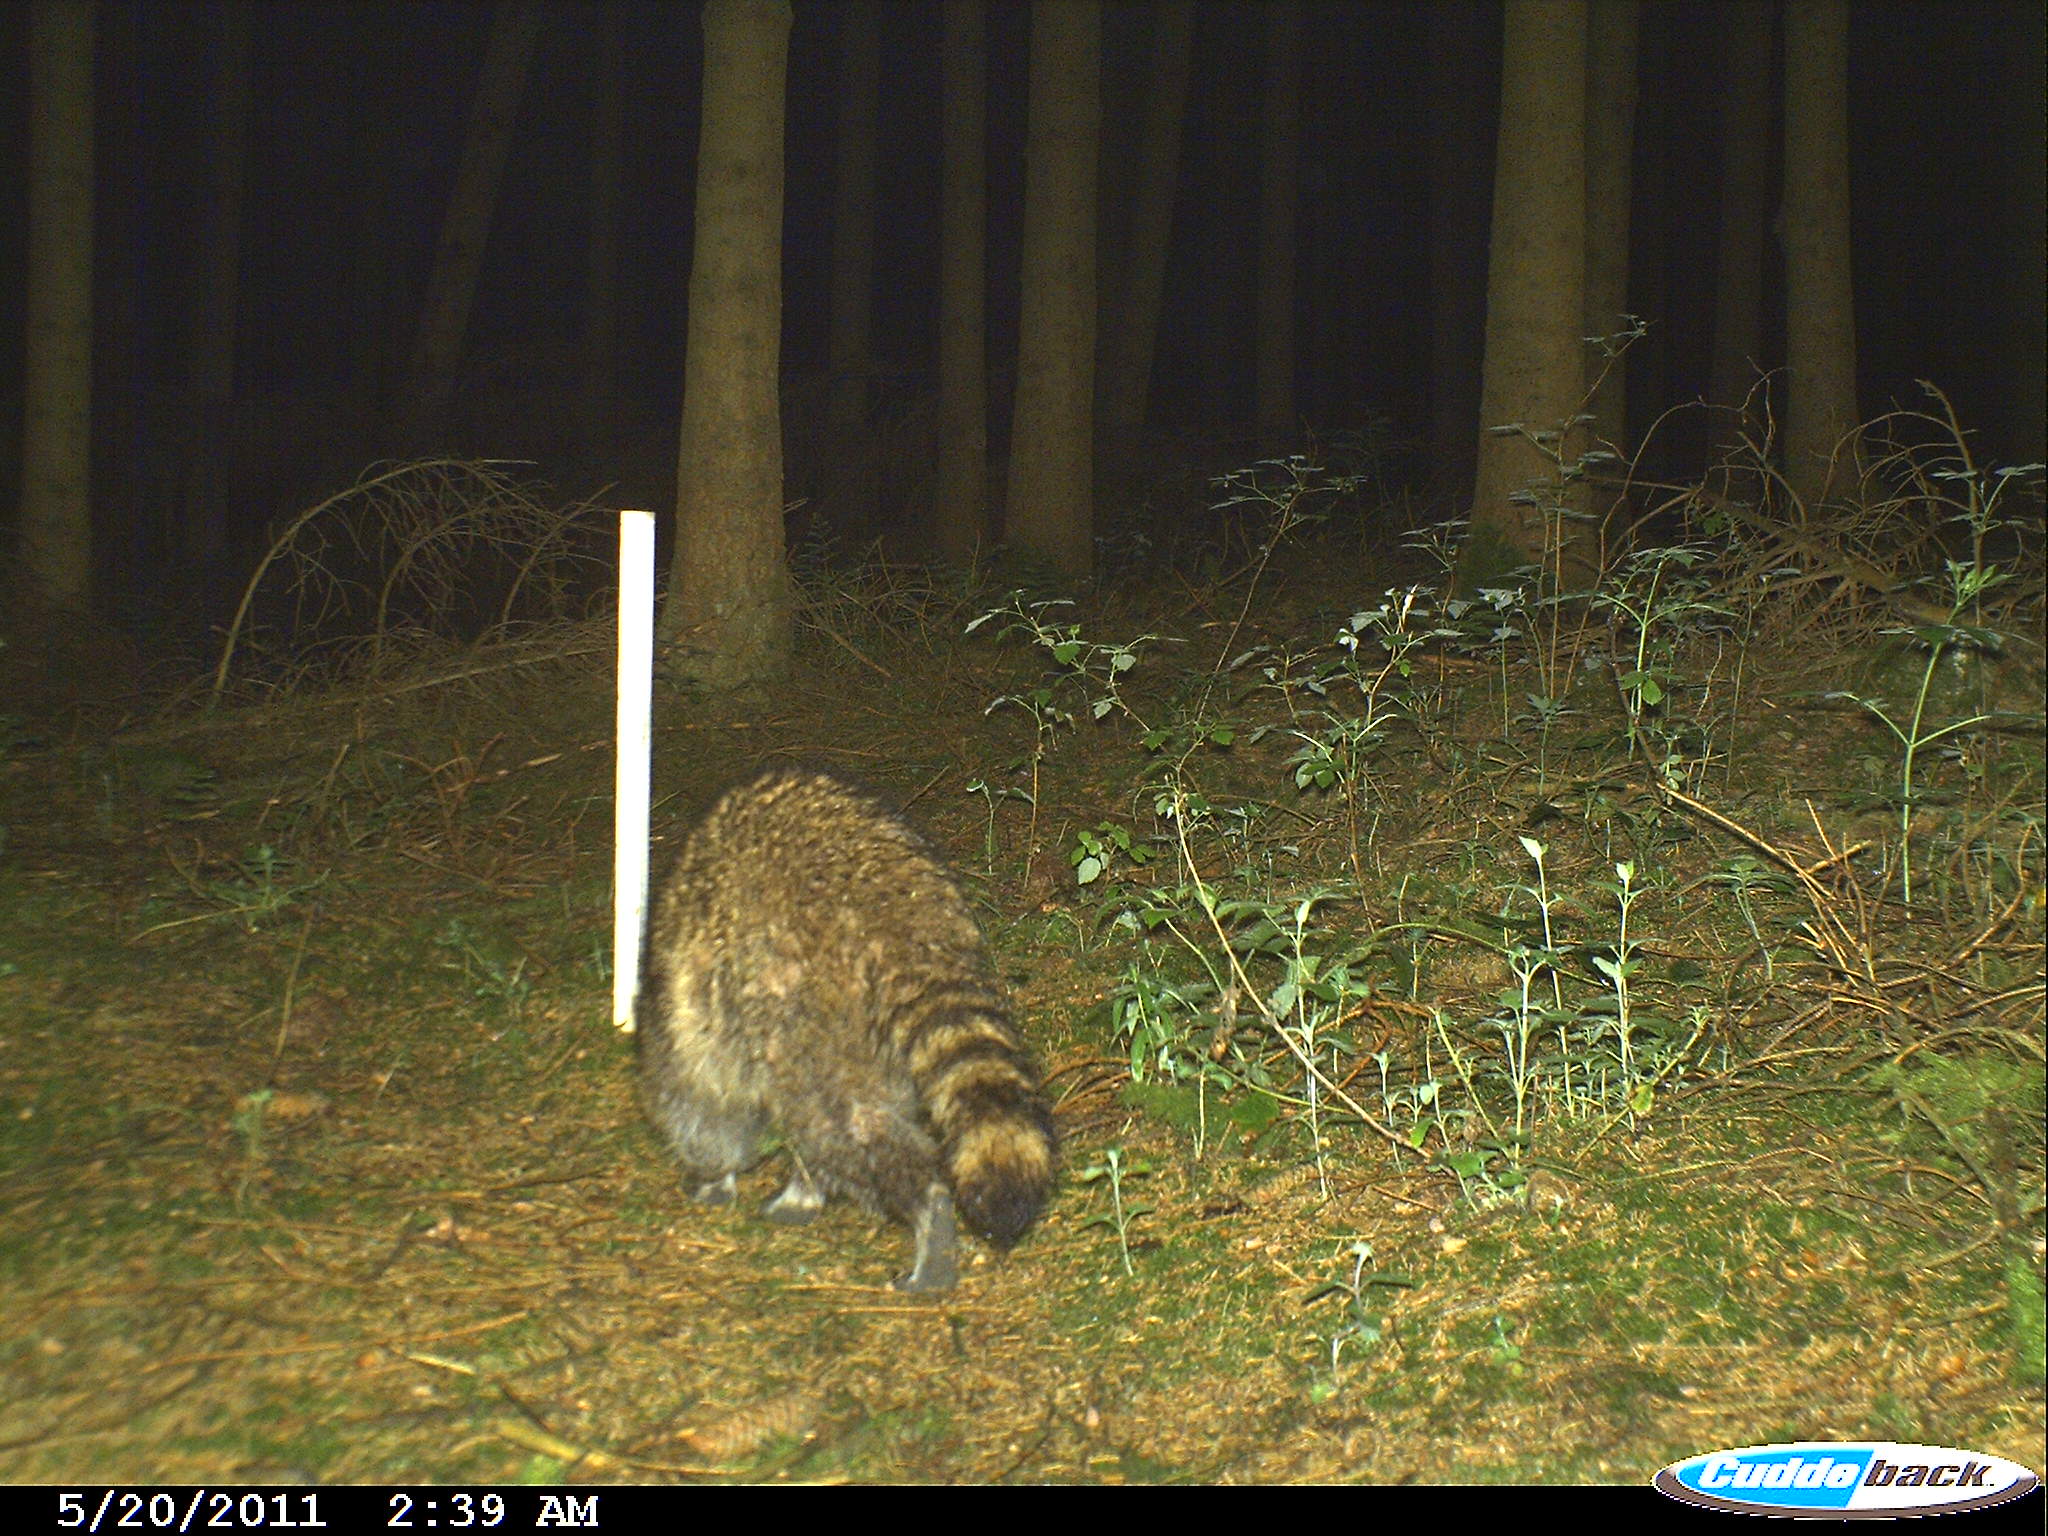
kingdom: Animalia
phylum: Chordata
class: Mammalia
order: Carnivora
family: Procyonidae
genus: Procyon
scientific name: Procyon lotor
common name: Raccoon
